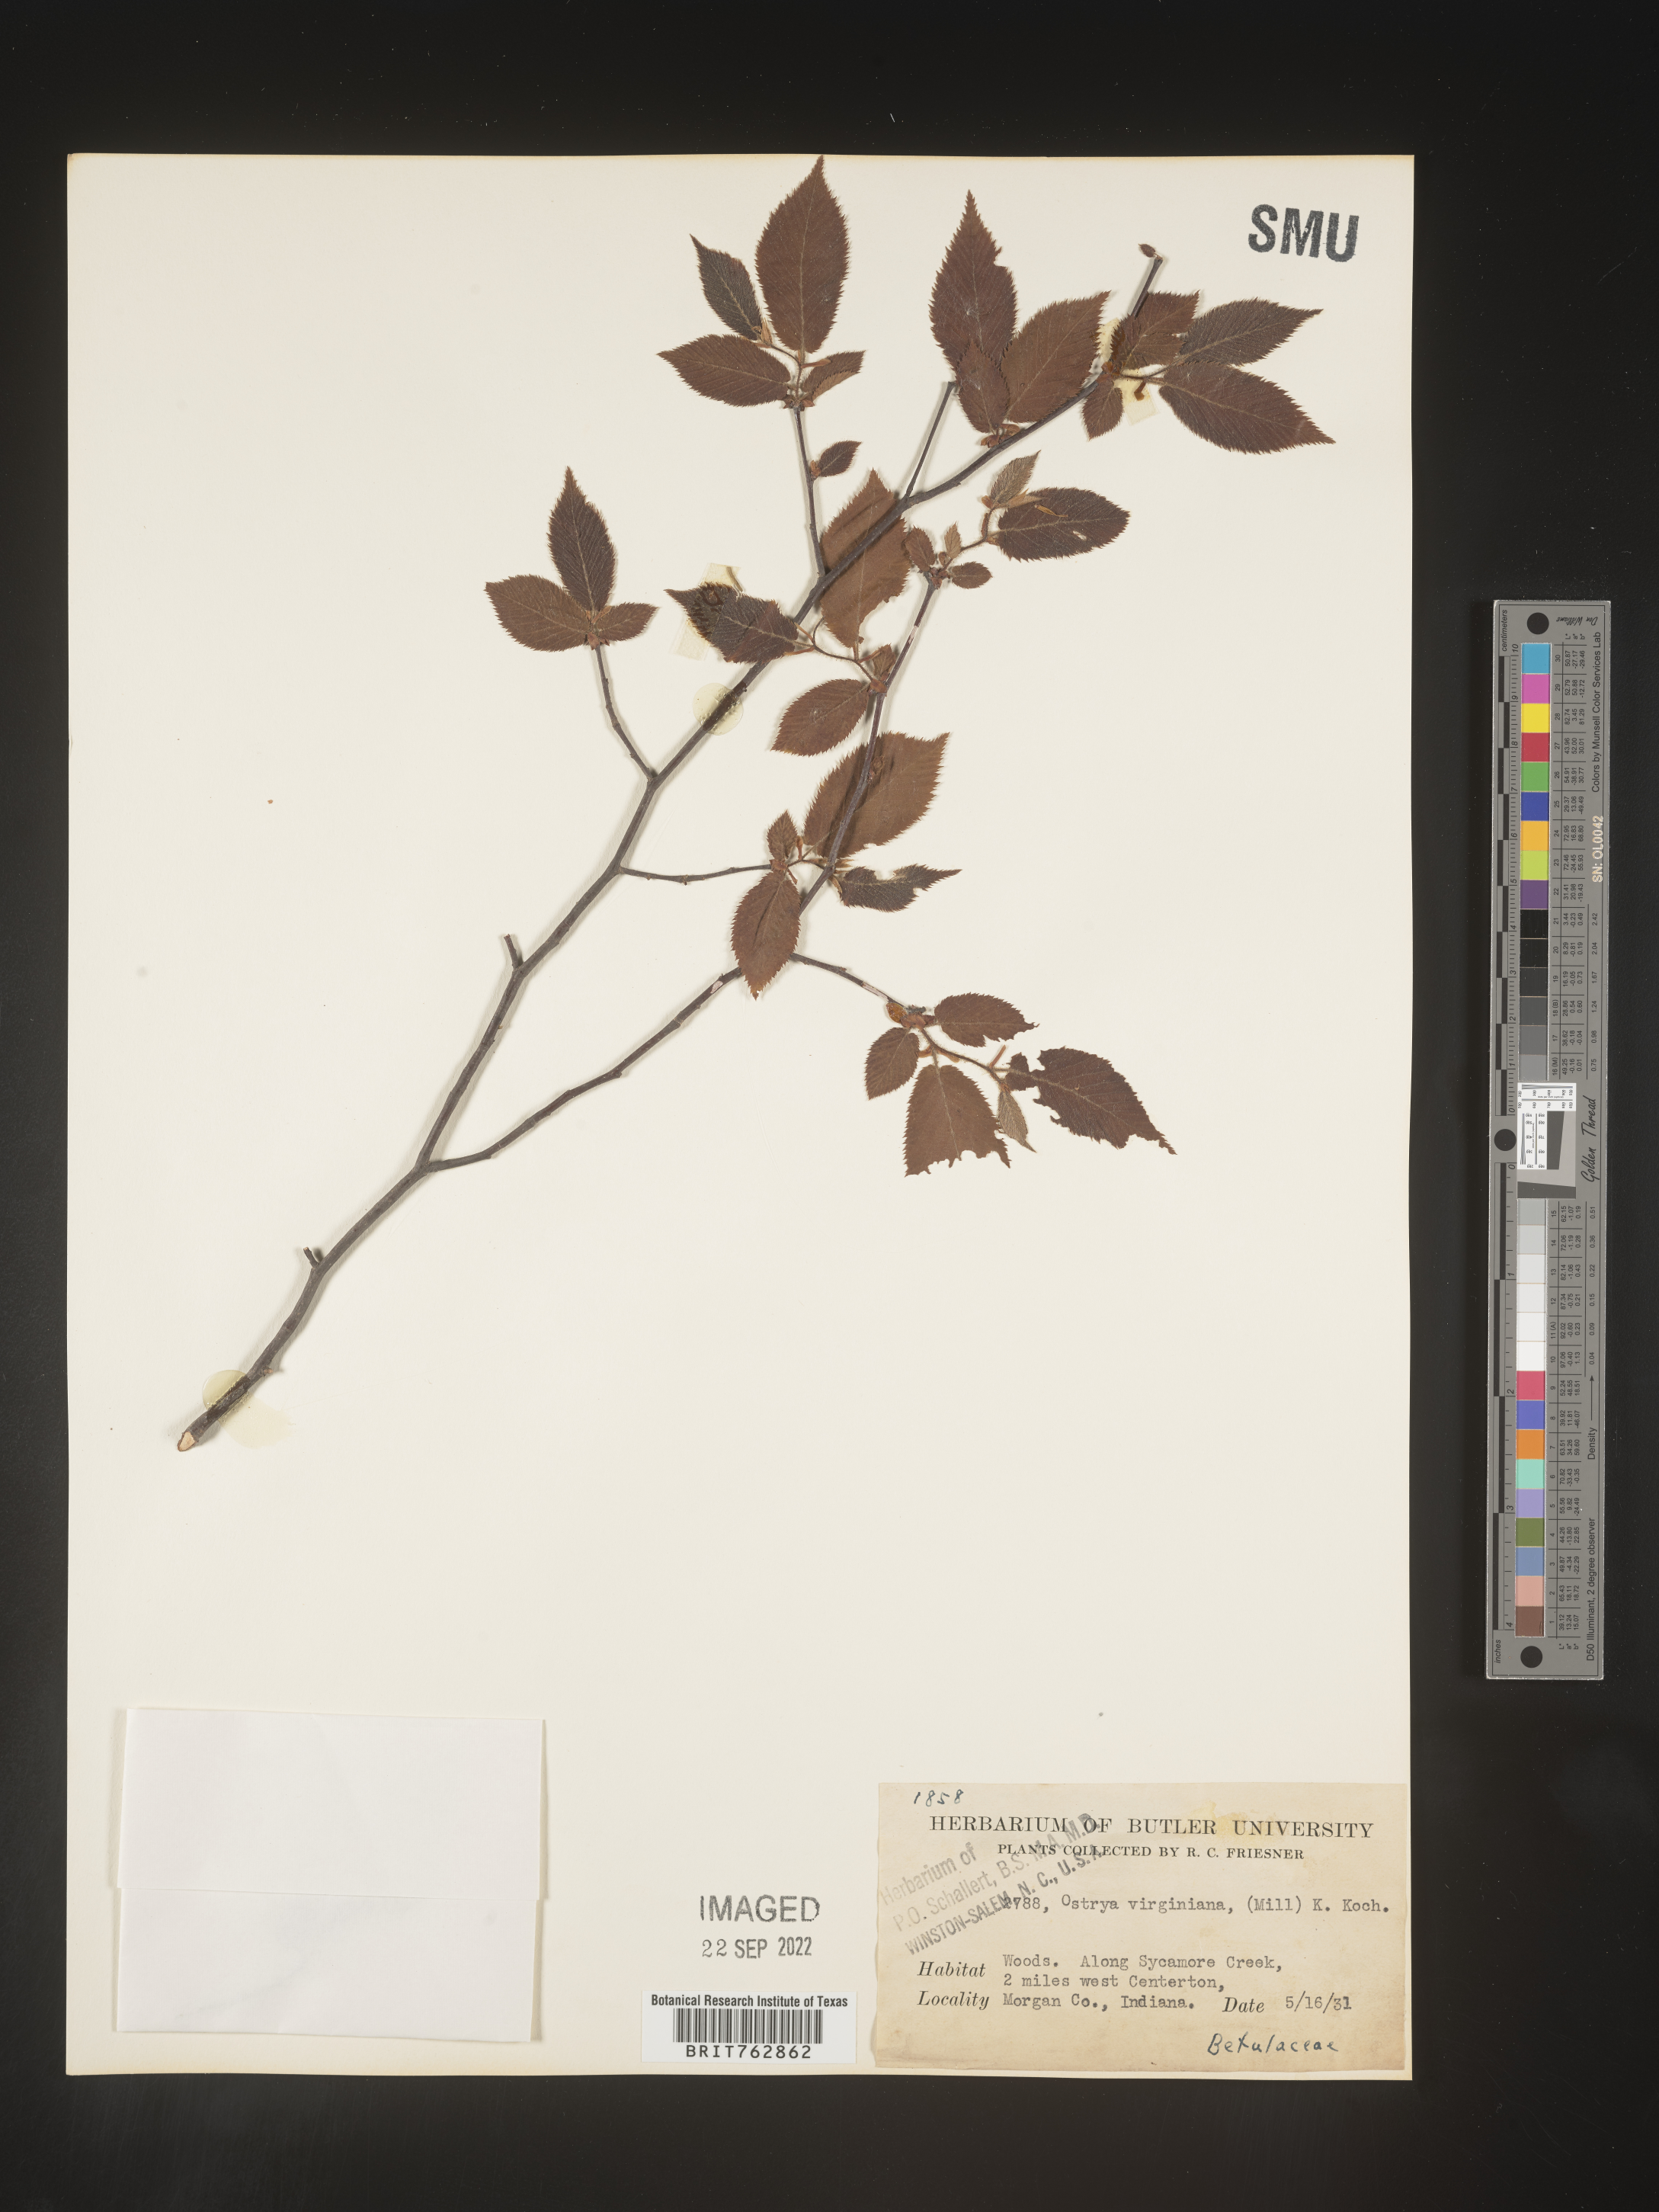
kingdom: Plantae
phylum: Tracheophyta
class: Magnoliopsida
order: Fagales
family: Betulaceae
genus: Ostrya
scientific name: Ostrya virginiana
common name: Ironwood
